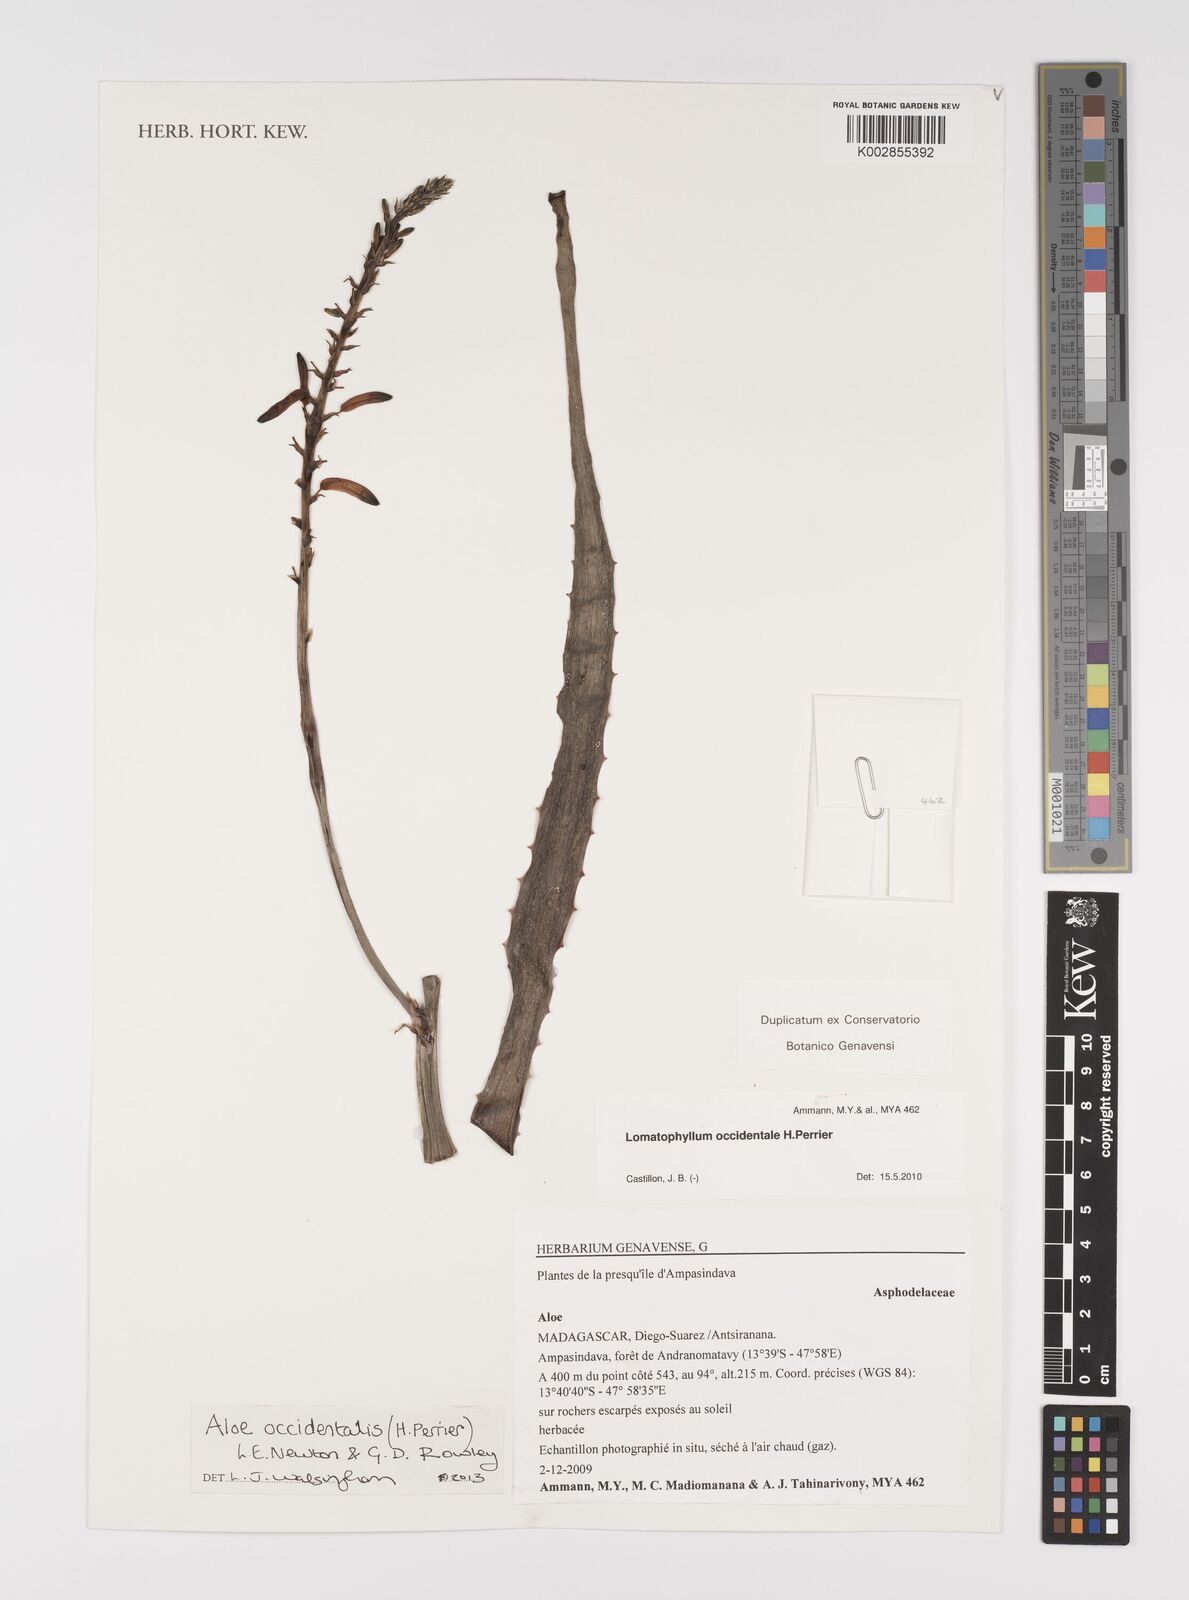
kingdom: Plantae
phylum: Tracheophyta
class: Liliopsida
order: Asparagales
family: Asphodelaceae
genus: Aloe
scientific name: Aloe occidentalis
